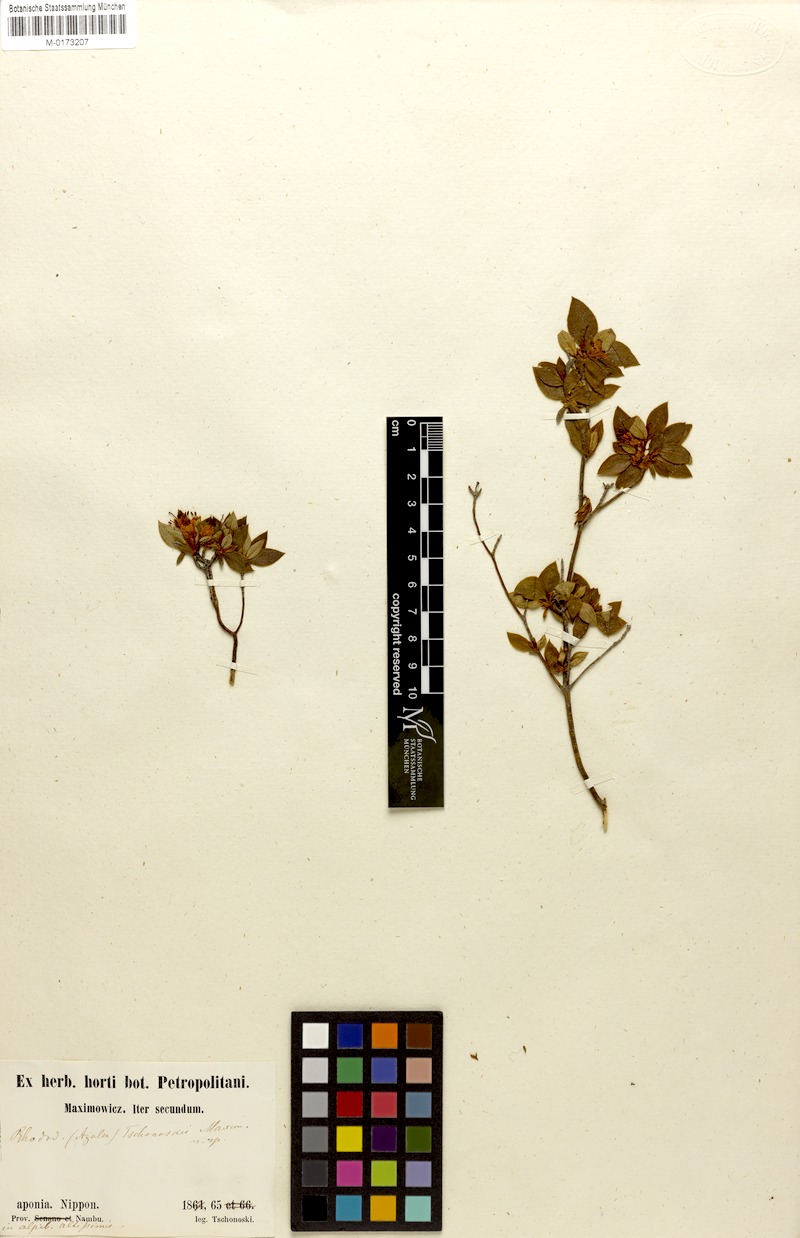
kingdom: Plantae
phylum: Tracheophyta
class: Magnoliopsida
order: Ericales
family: Ericaceae
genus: Rhododendron
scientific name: Rhododendron tschonoskii
